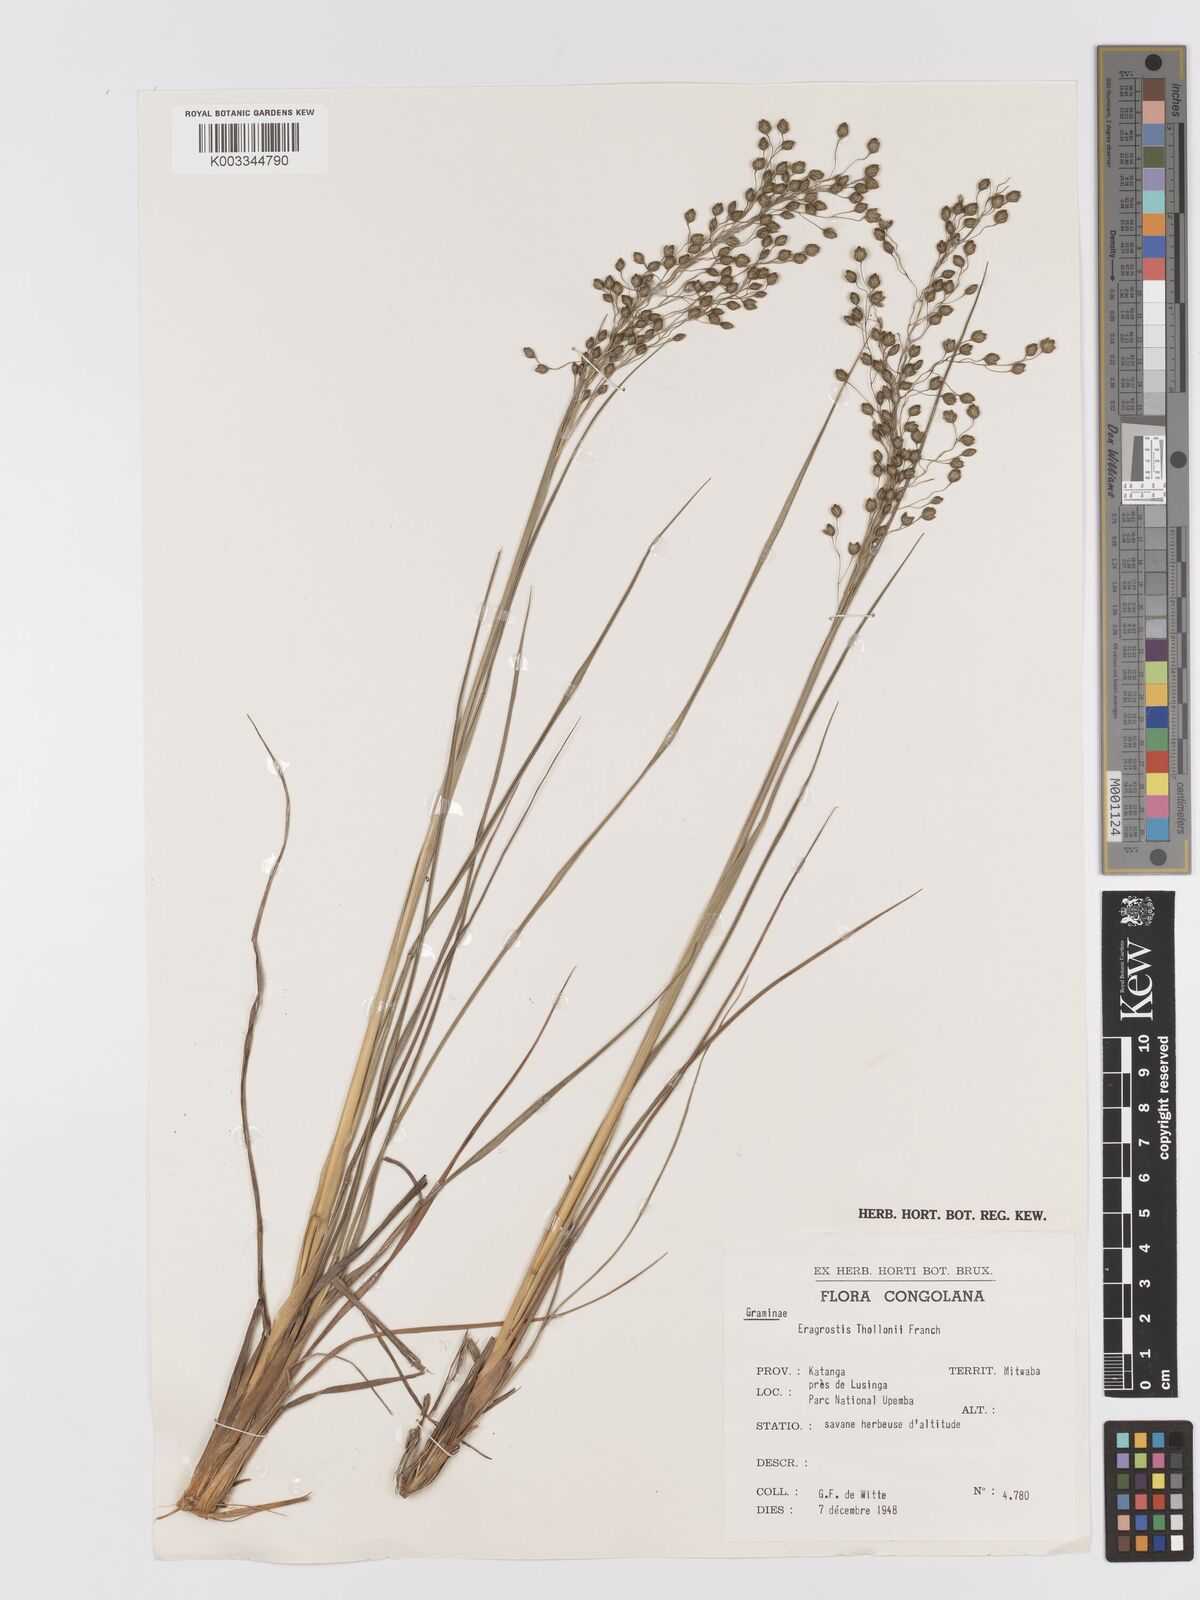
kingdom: Plantae
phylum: Tracheophyta
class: Liliopsida
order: Poales
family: Poaceae
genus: Eragrostis
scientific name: Eragrostis thollonii
